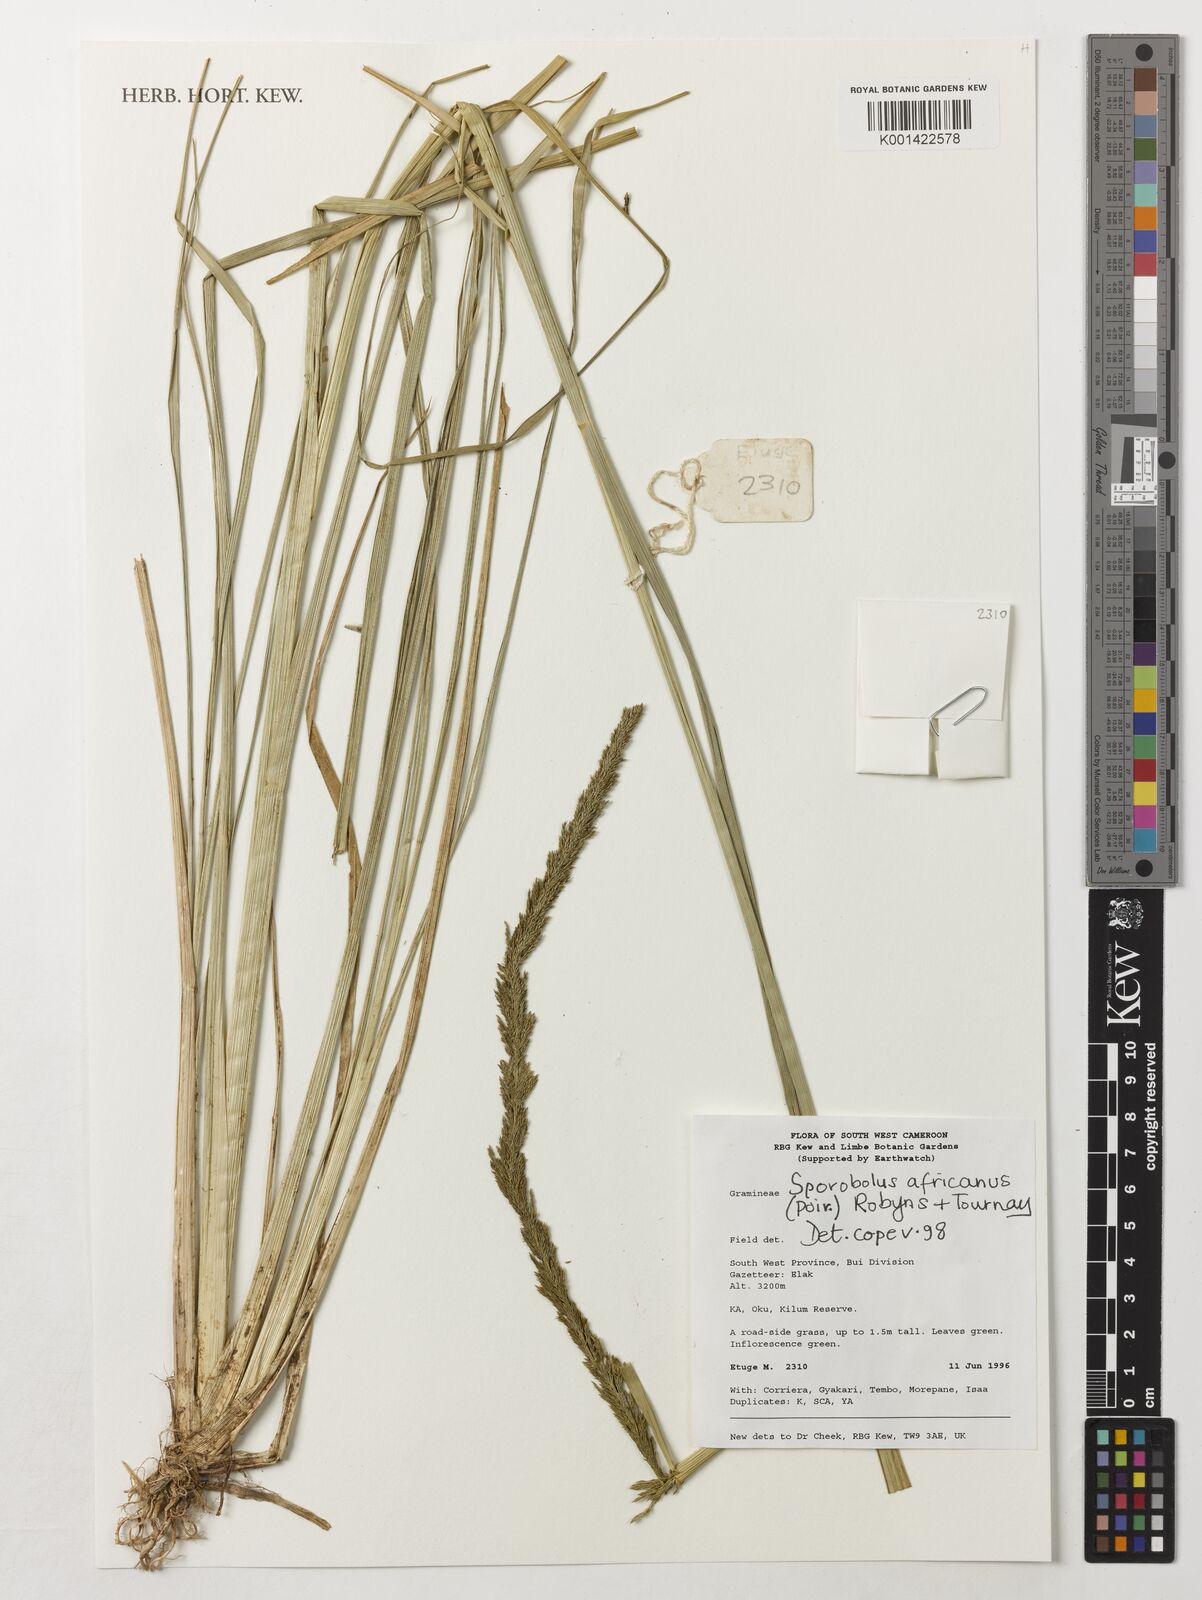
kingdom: Plantae
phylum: Tracheophyta
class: Liliopsida
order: Poales
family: Poaceae
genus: Sporobolus
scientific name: Sporobolus africanus
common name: African dropseed
